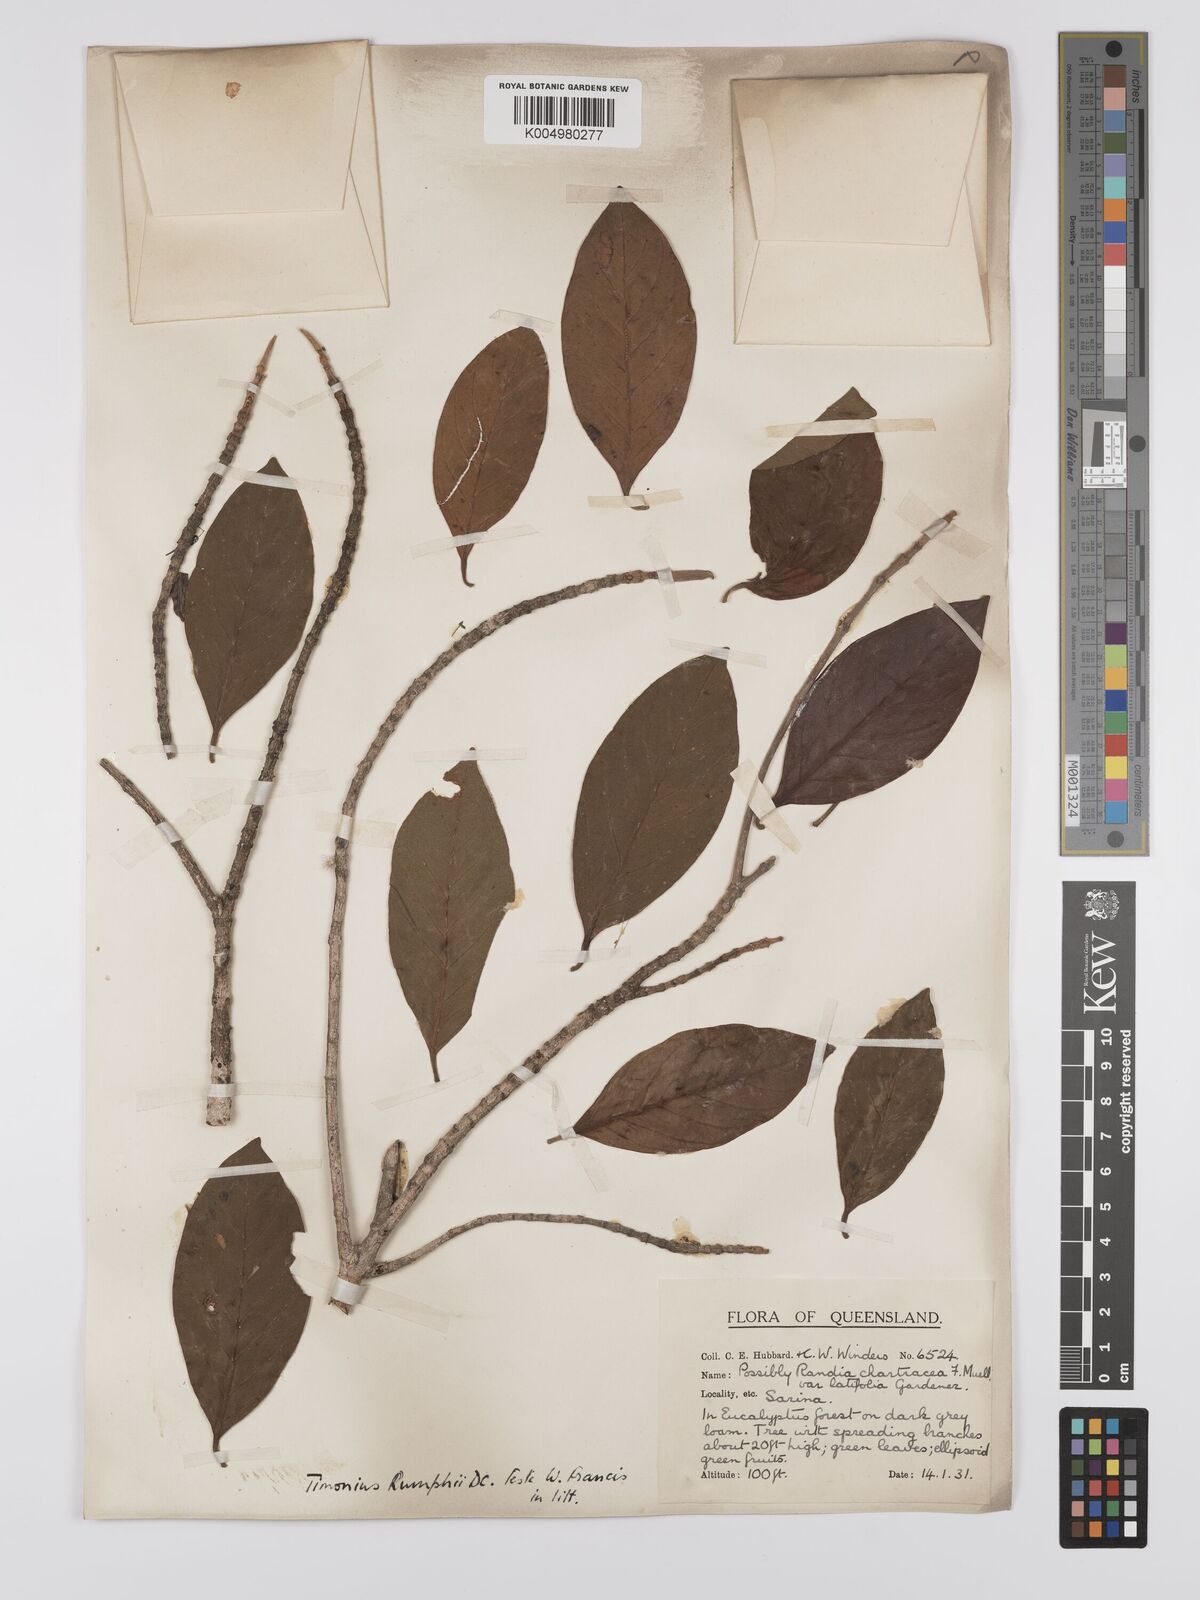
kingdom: Plantae
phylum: Tracheophyta
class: Magnoliopsida
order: Gentianales
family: Rubiaceae
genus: Timonius
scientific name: Timonius timon
